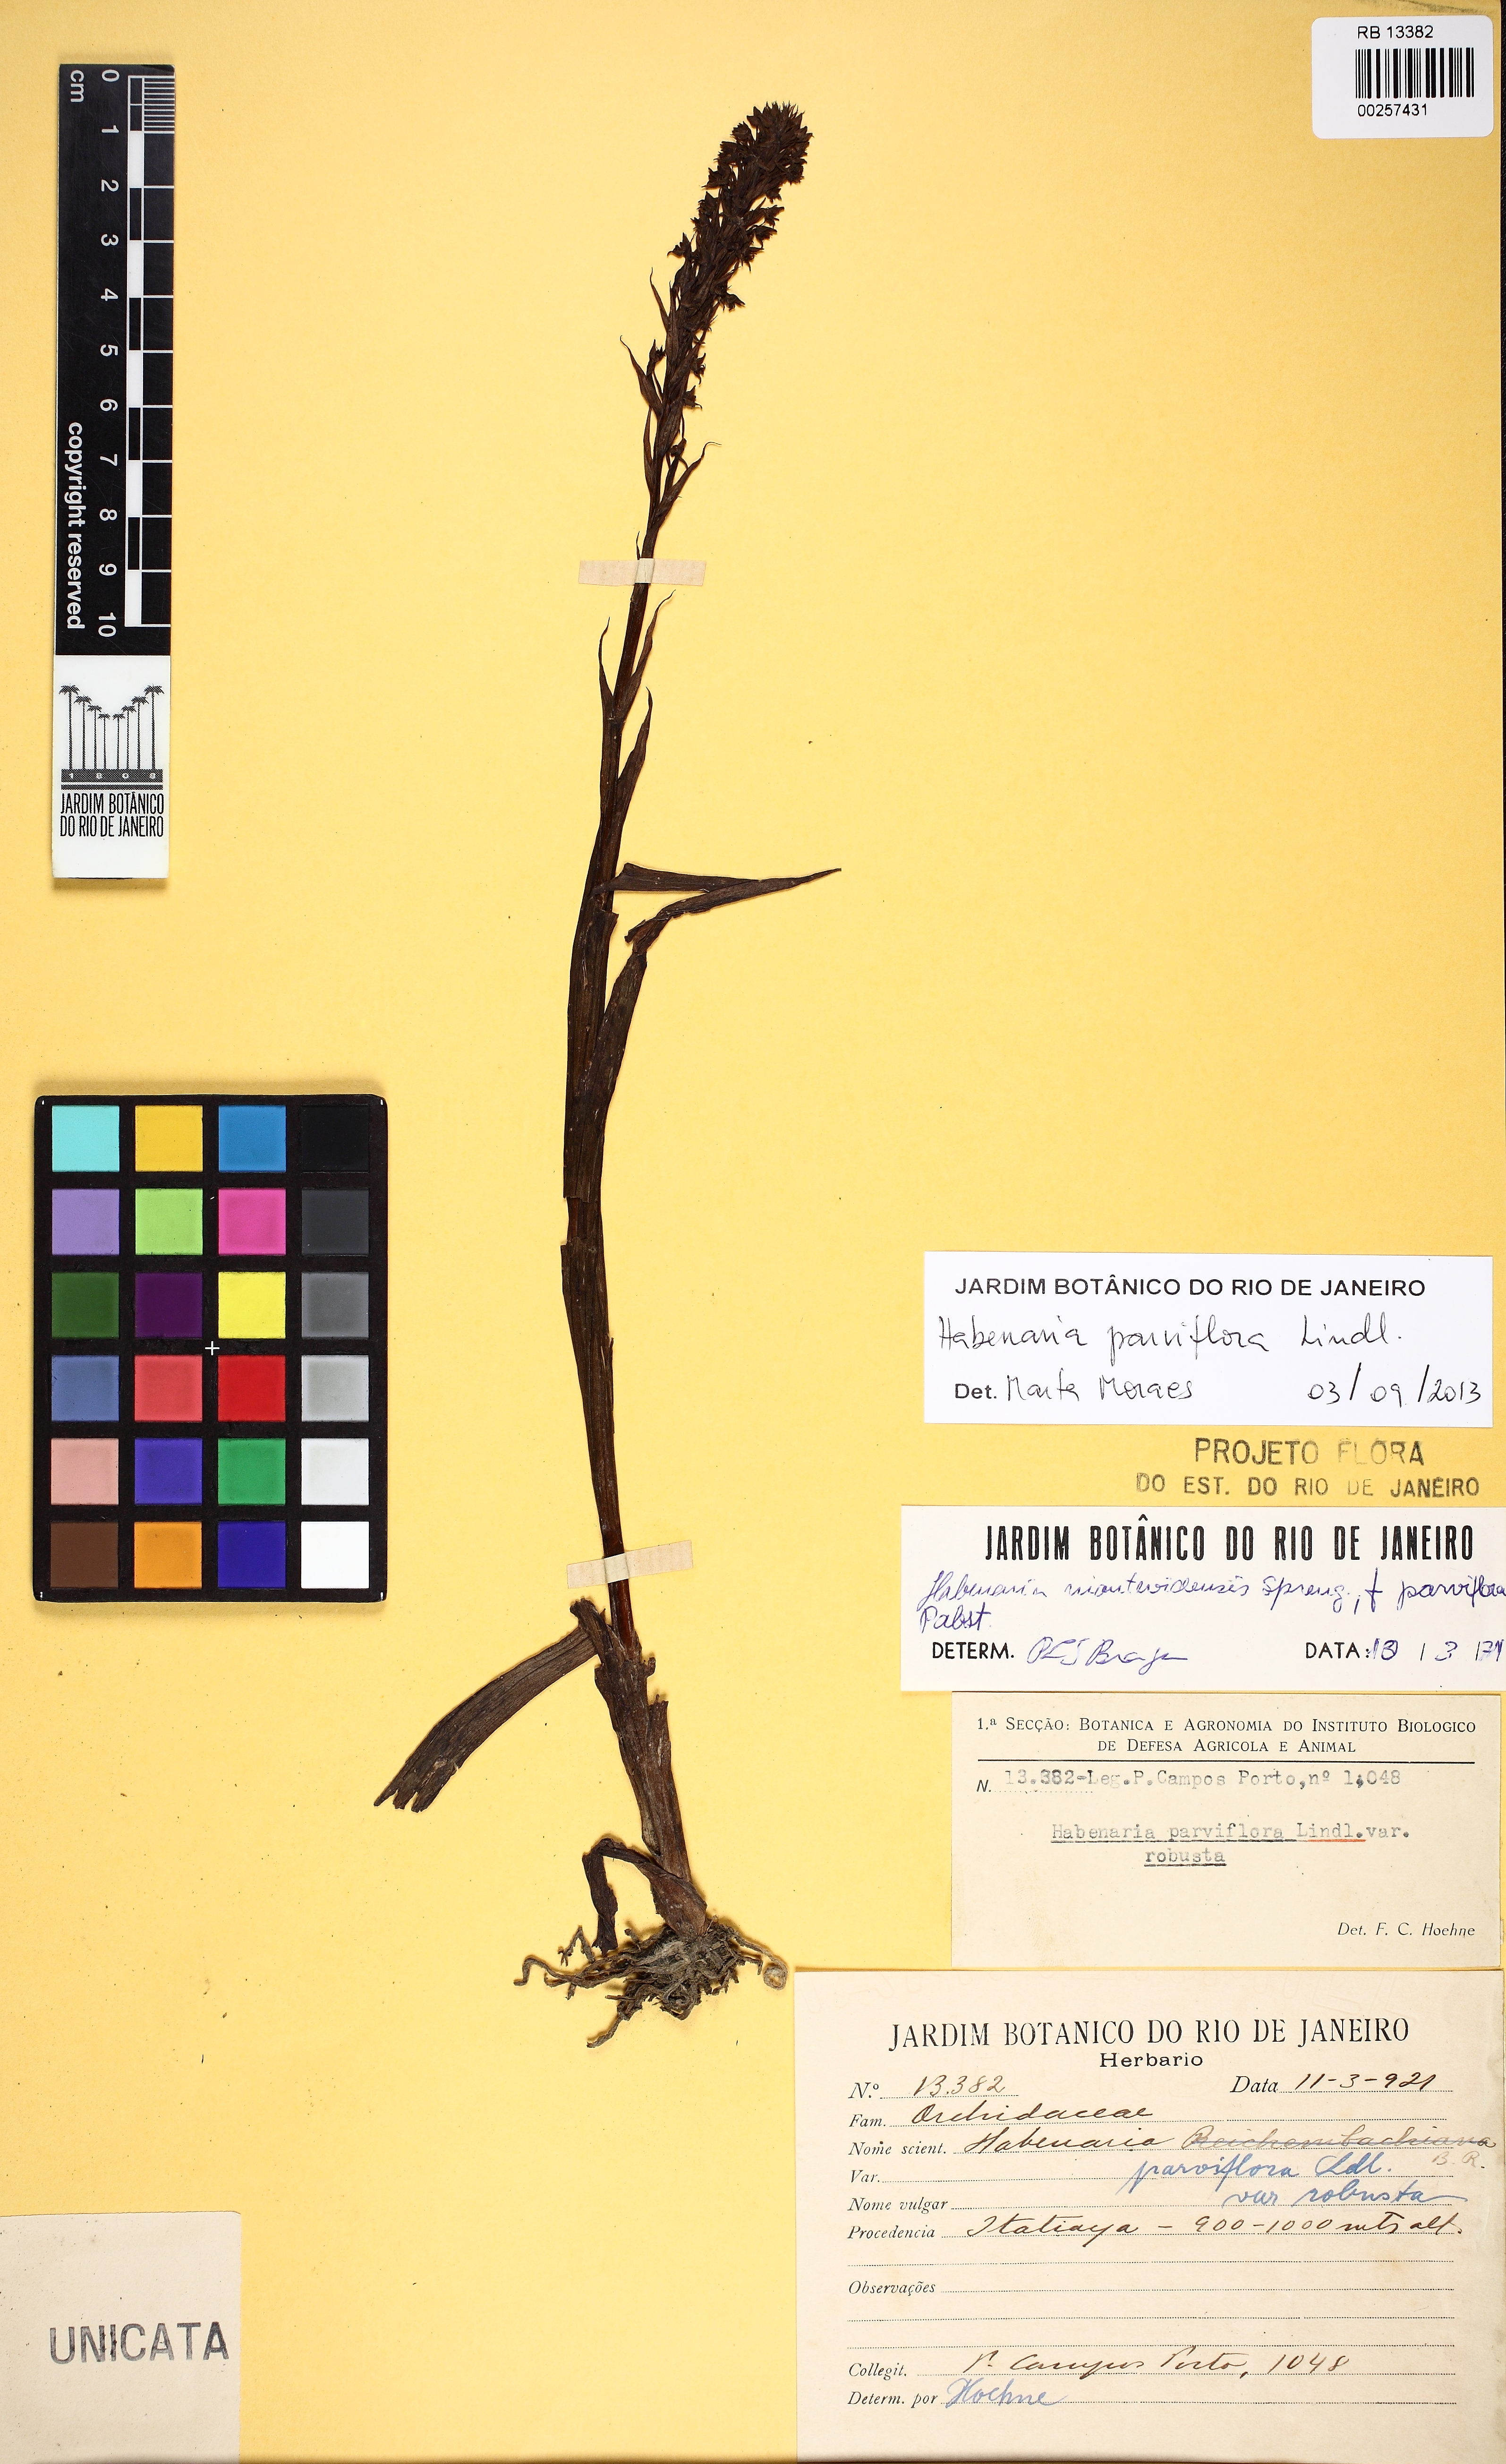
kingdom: Plantae
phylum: Tracheophyta
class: Liliopsida
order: Asparagales
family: Orchidaceae
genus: Habenaria
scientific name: Habenaria parviflora
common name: Small flowered habenaria
